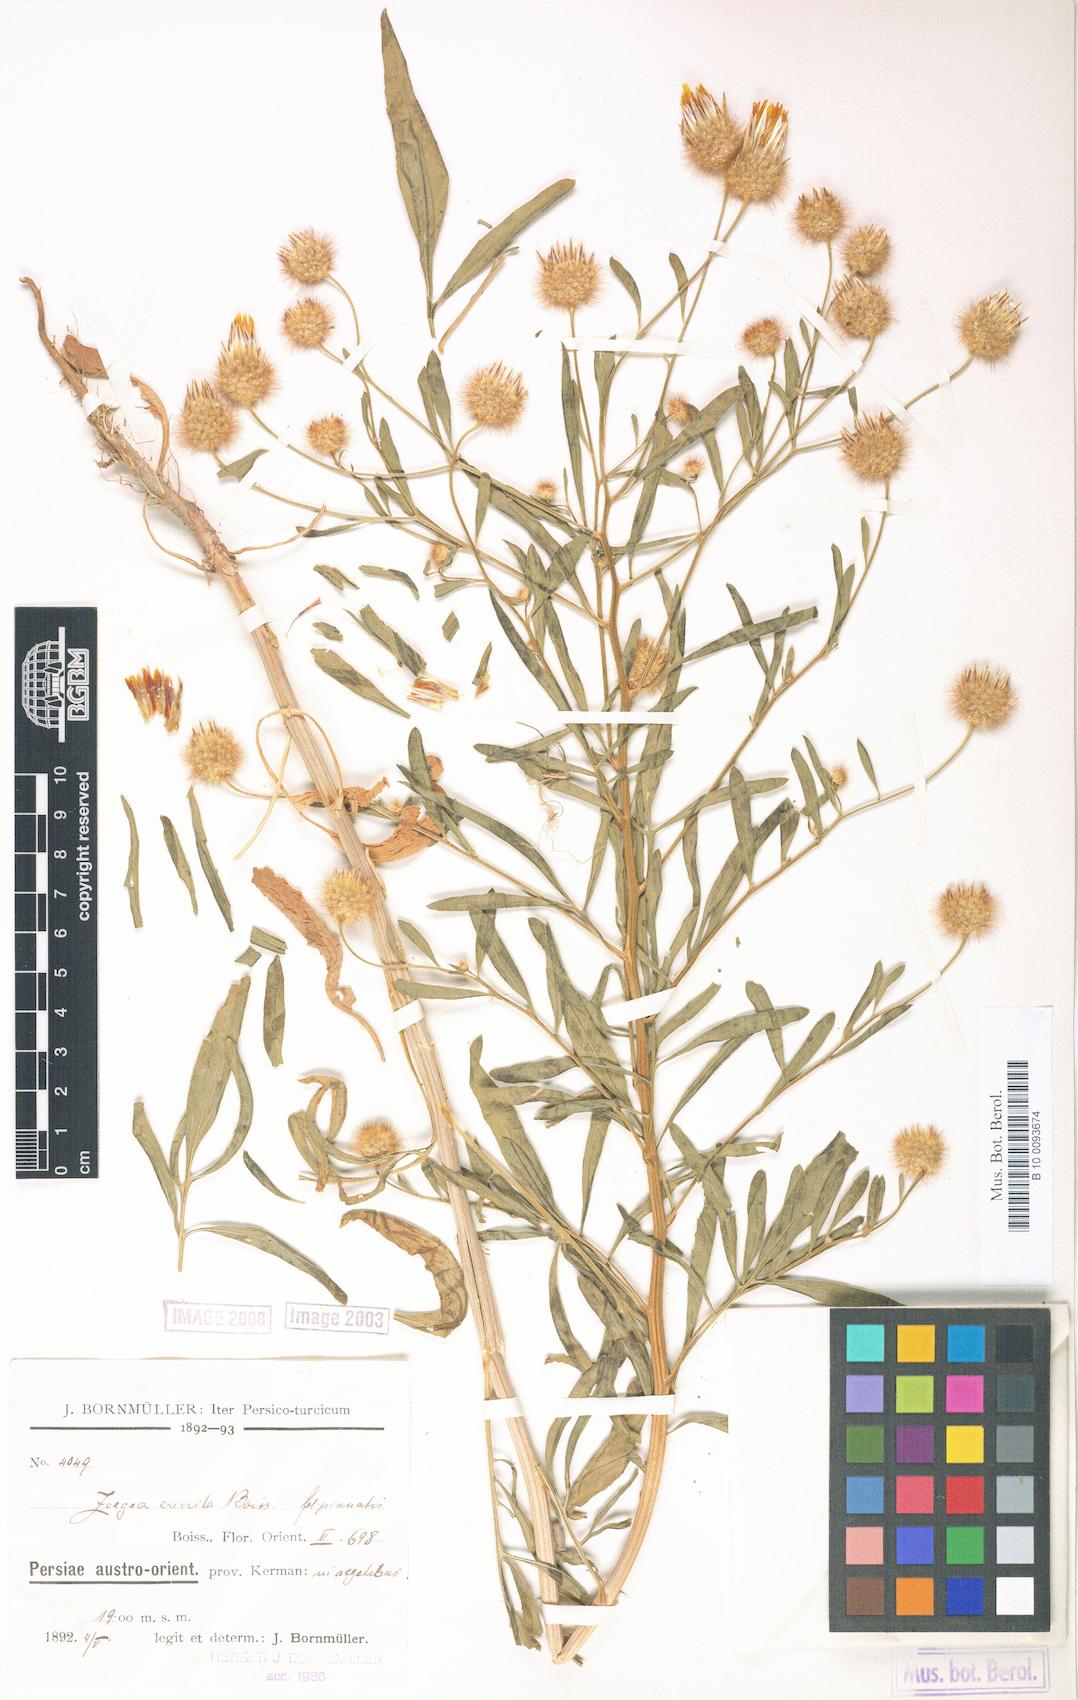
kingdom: Plantae
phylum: Tracheophyta
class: Magnoliopsida
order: Asterales
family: Asteraceae
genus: Zoegea
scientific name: Zoegea crinita
